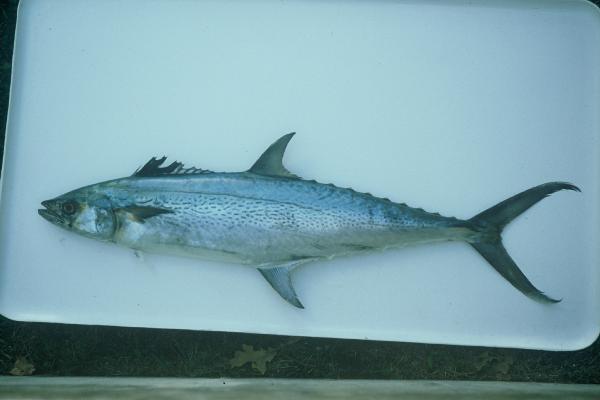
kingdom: Animalia
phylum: Chordata
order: Perciformes
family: Scombridae
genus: Scomberomorus
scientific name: Scomberomorus plurilineatus
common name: Queen mackerel
